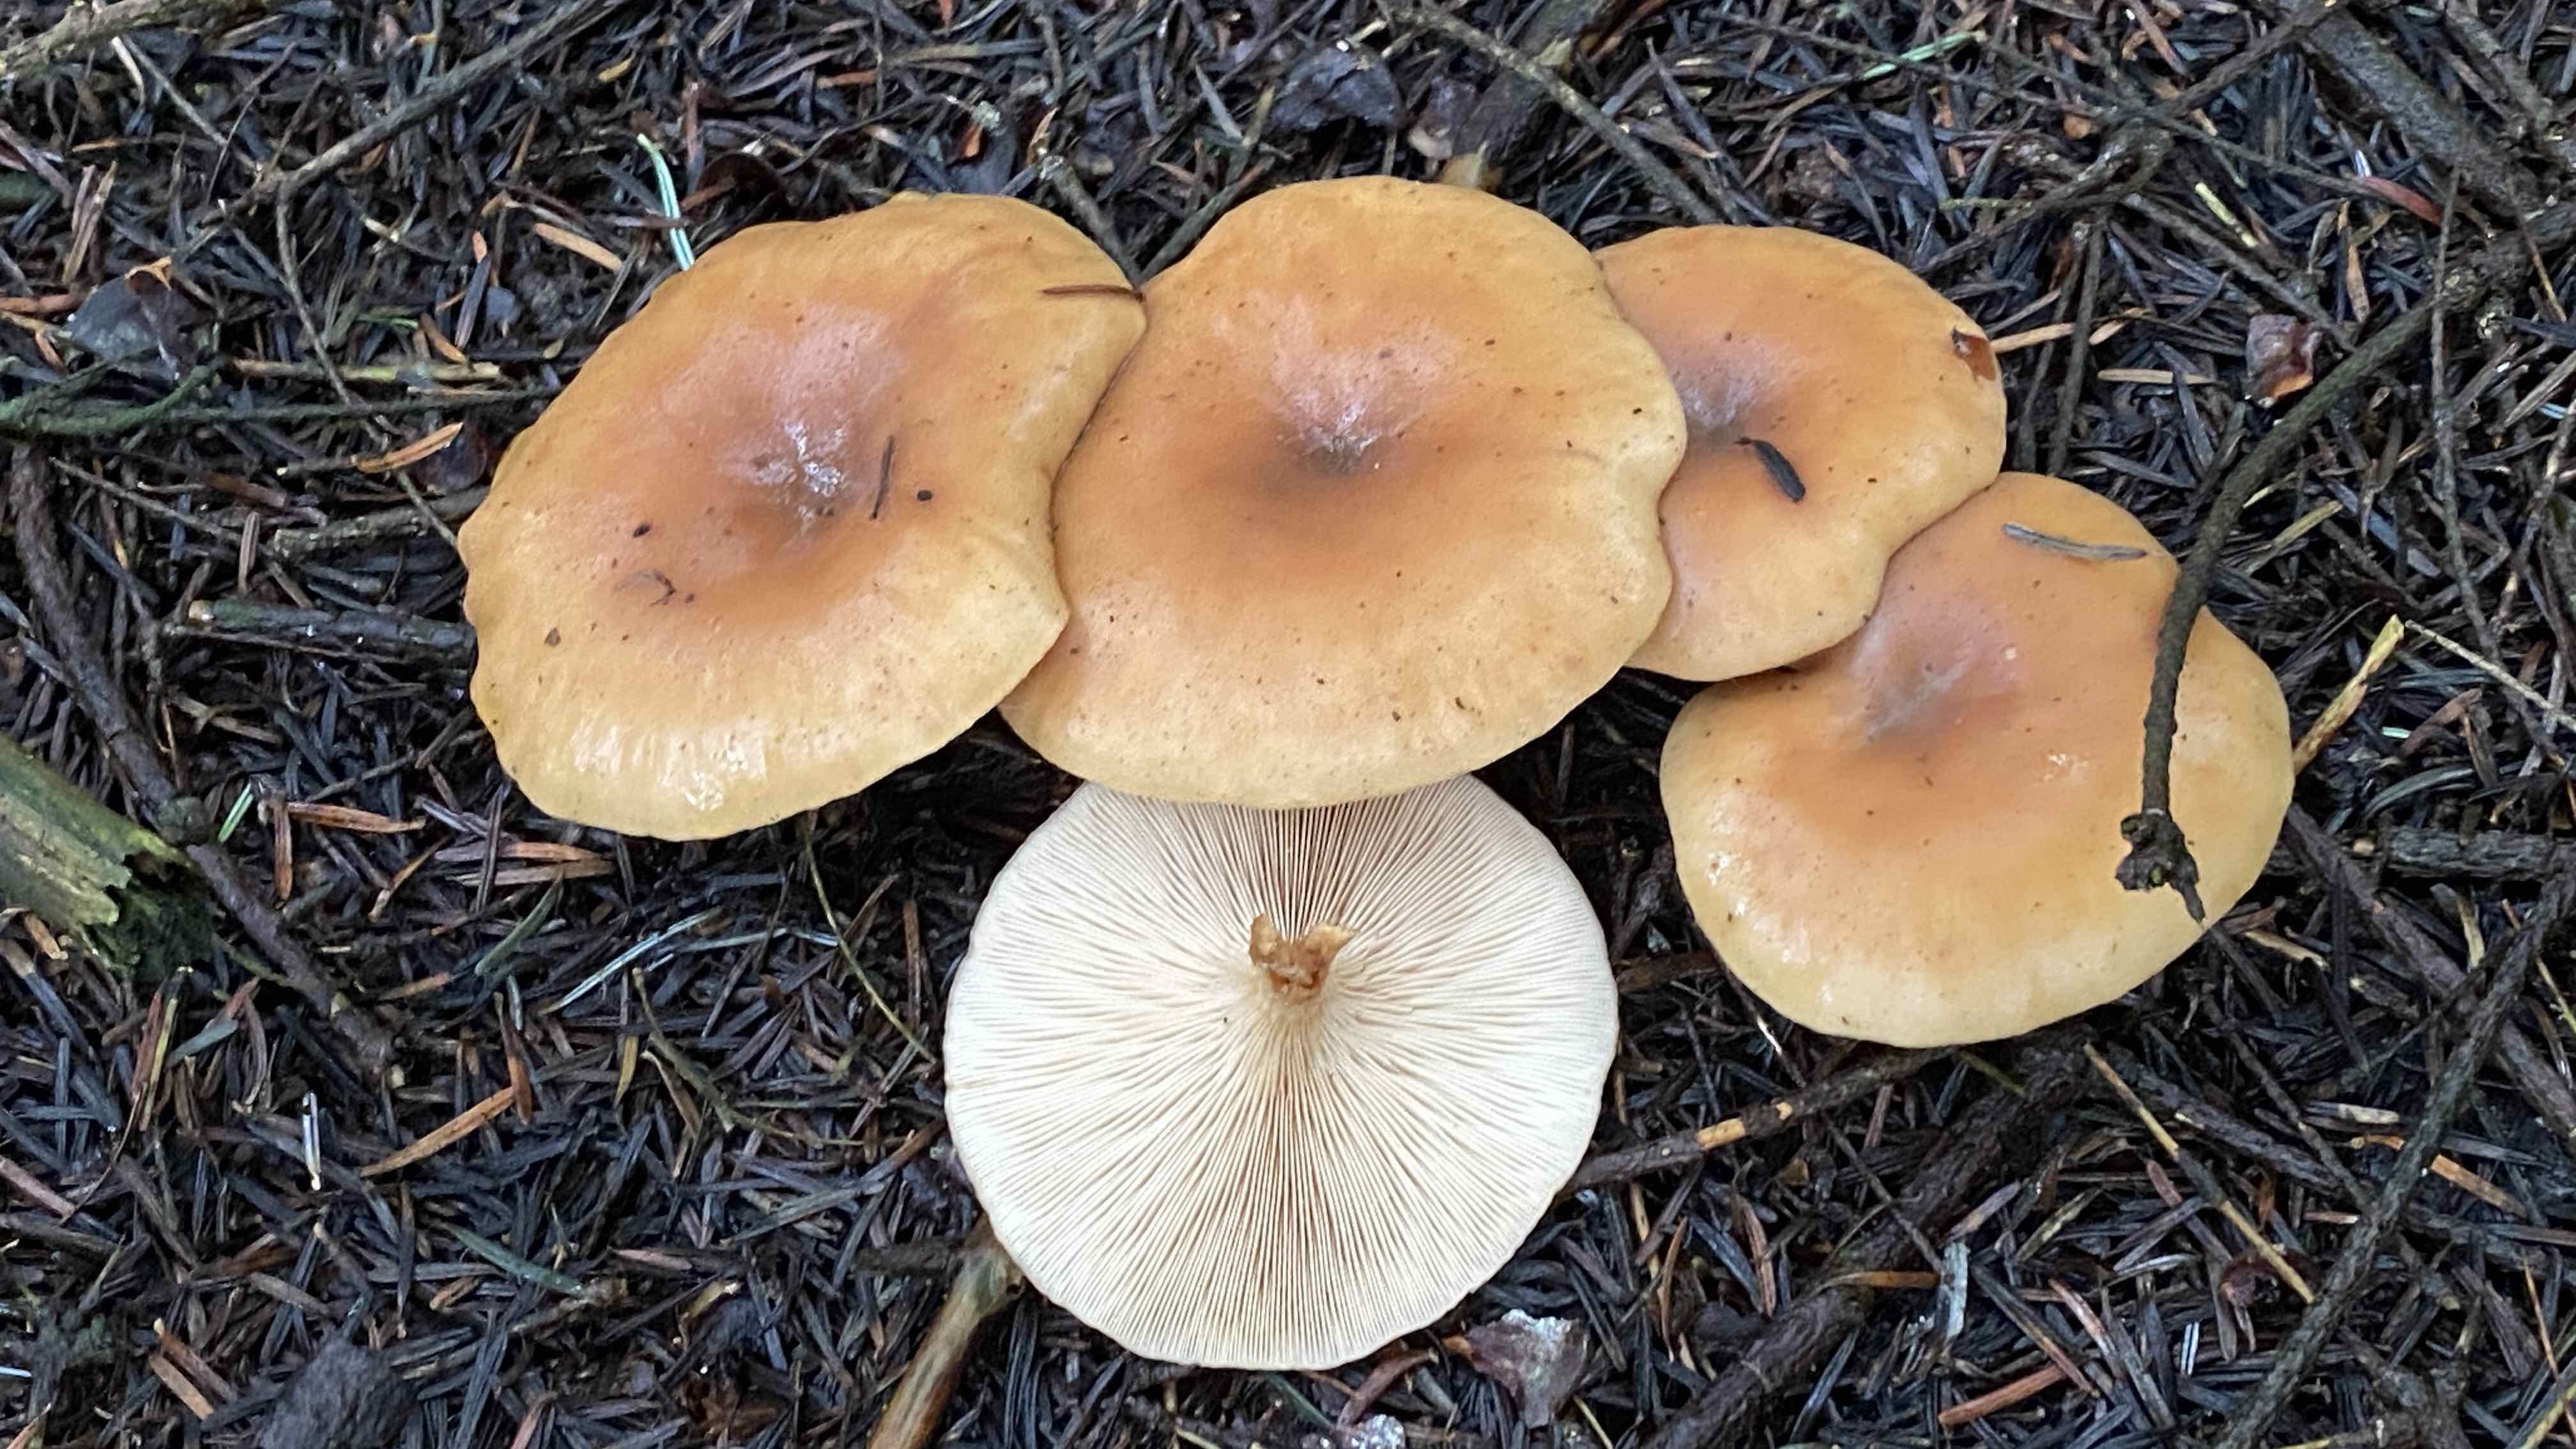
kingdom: Fungi
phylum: Basidiomycota
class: Agaricomycetes
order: Agaricales
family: Tricholomataceae
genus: Paralepista
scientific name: Paralepista flaccida
